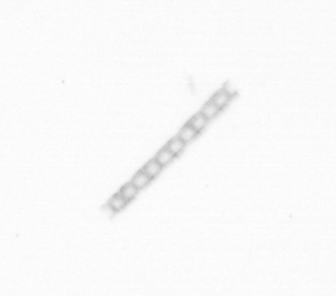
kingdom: Chromista
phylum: Ochrophyta
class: Bacillariophyceae
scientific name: Bacillariophyceae
